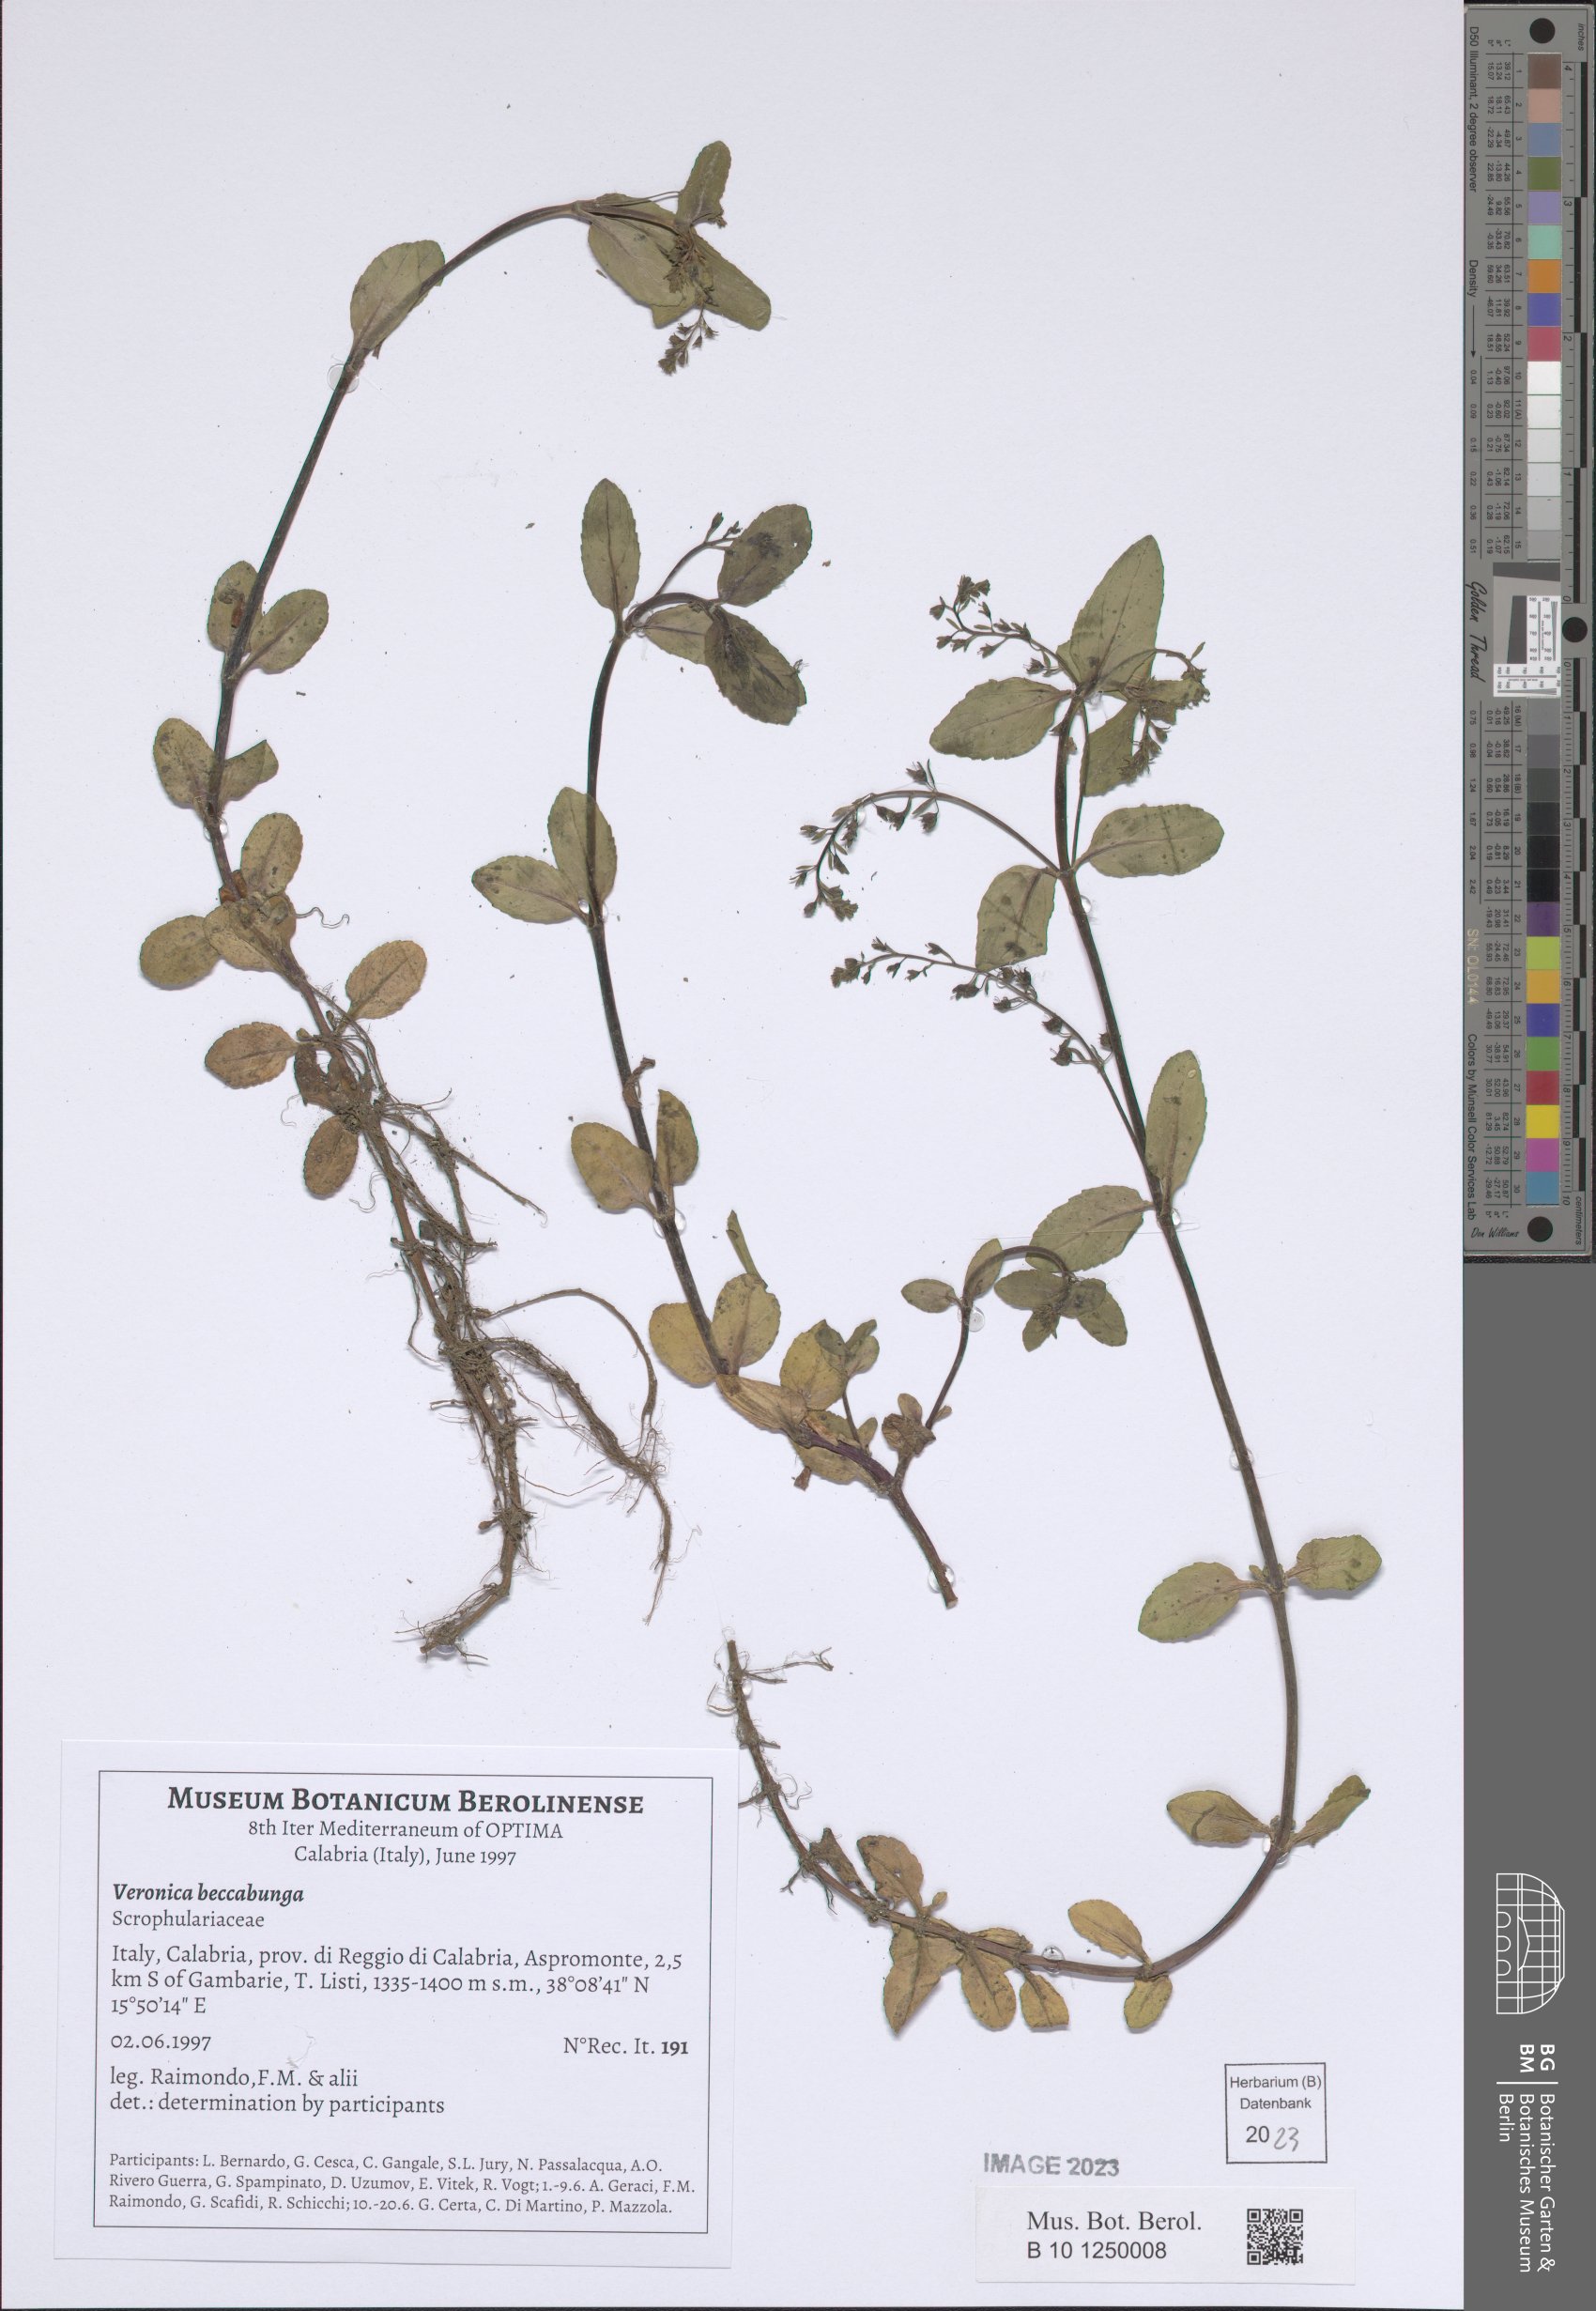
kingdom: Plantae
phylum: Tracheophyta
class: Magnoliopsida
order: Lamiales
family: Plantaginaceae
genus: Veronica
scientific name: Veronica beccabunga
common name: Brooklime
